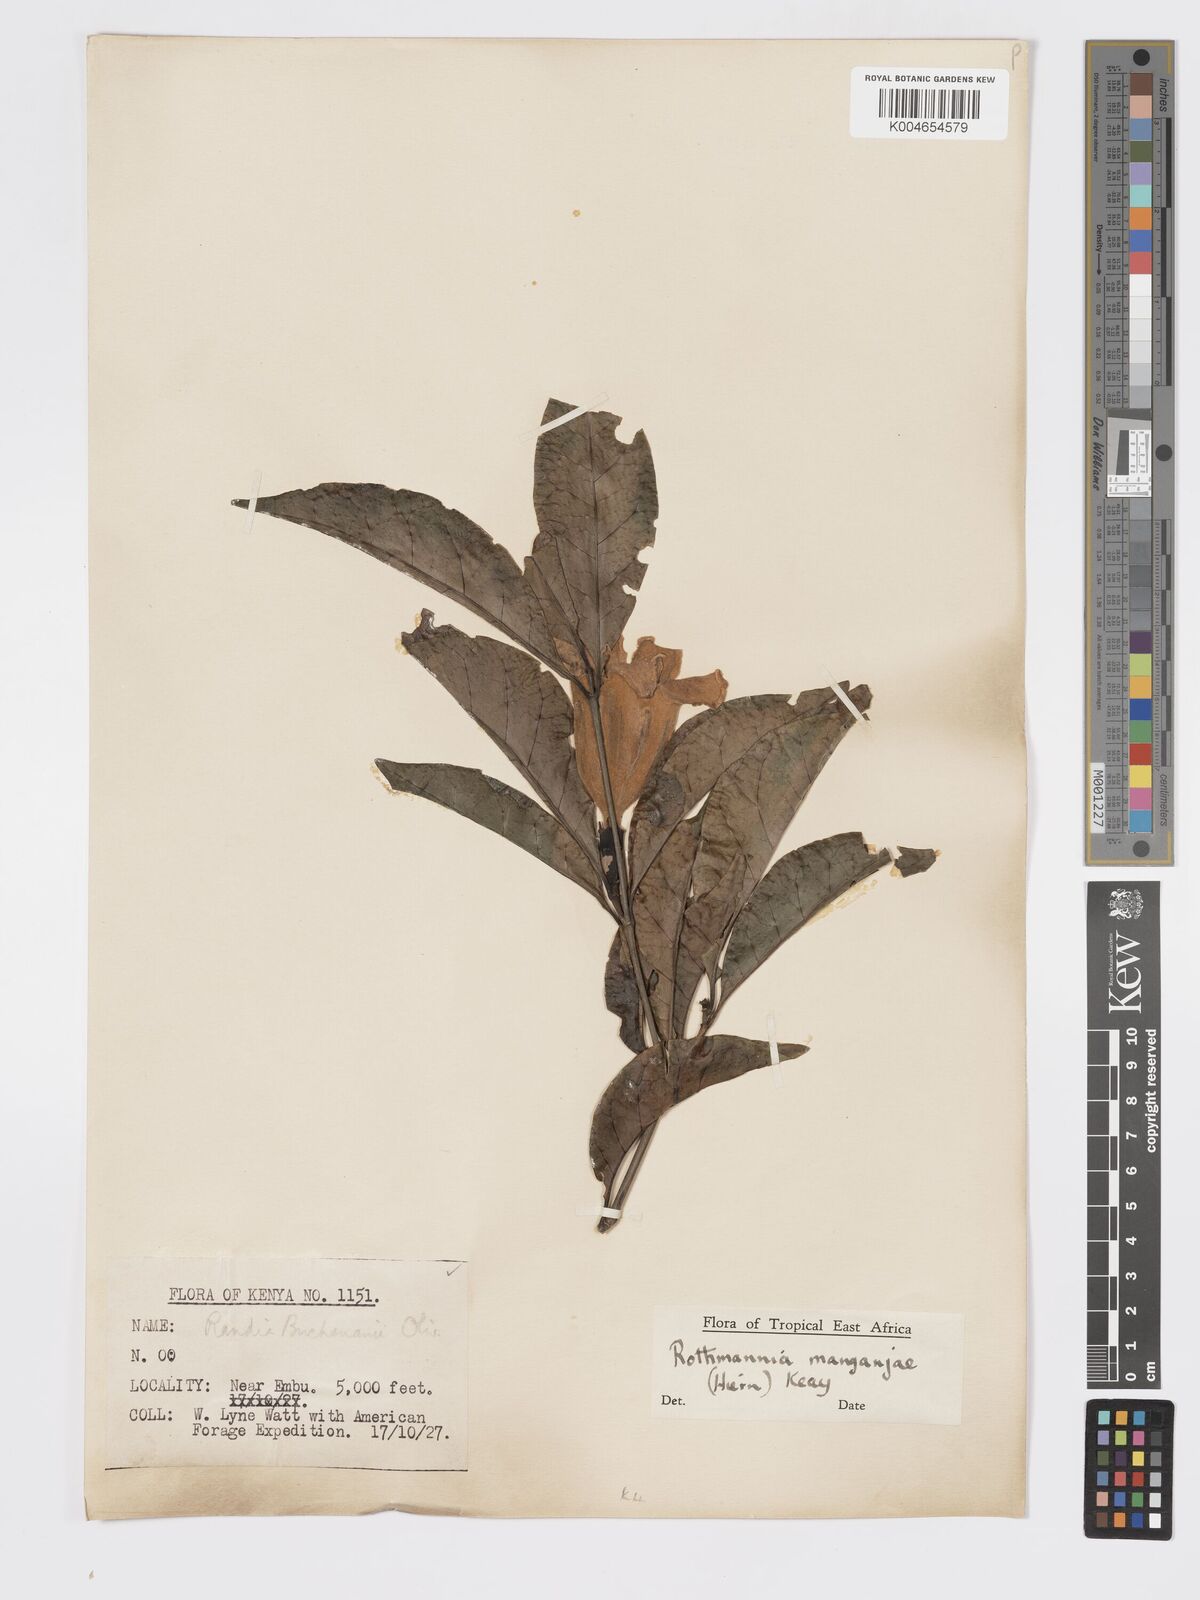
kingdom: Plantae
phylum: Tracheophyta
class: Magnoliopsida
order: Gentianales
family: Rubiaceae
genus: Rothmannia
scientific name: Rothmannia manganjae
